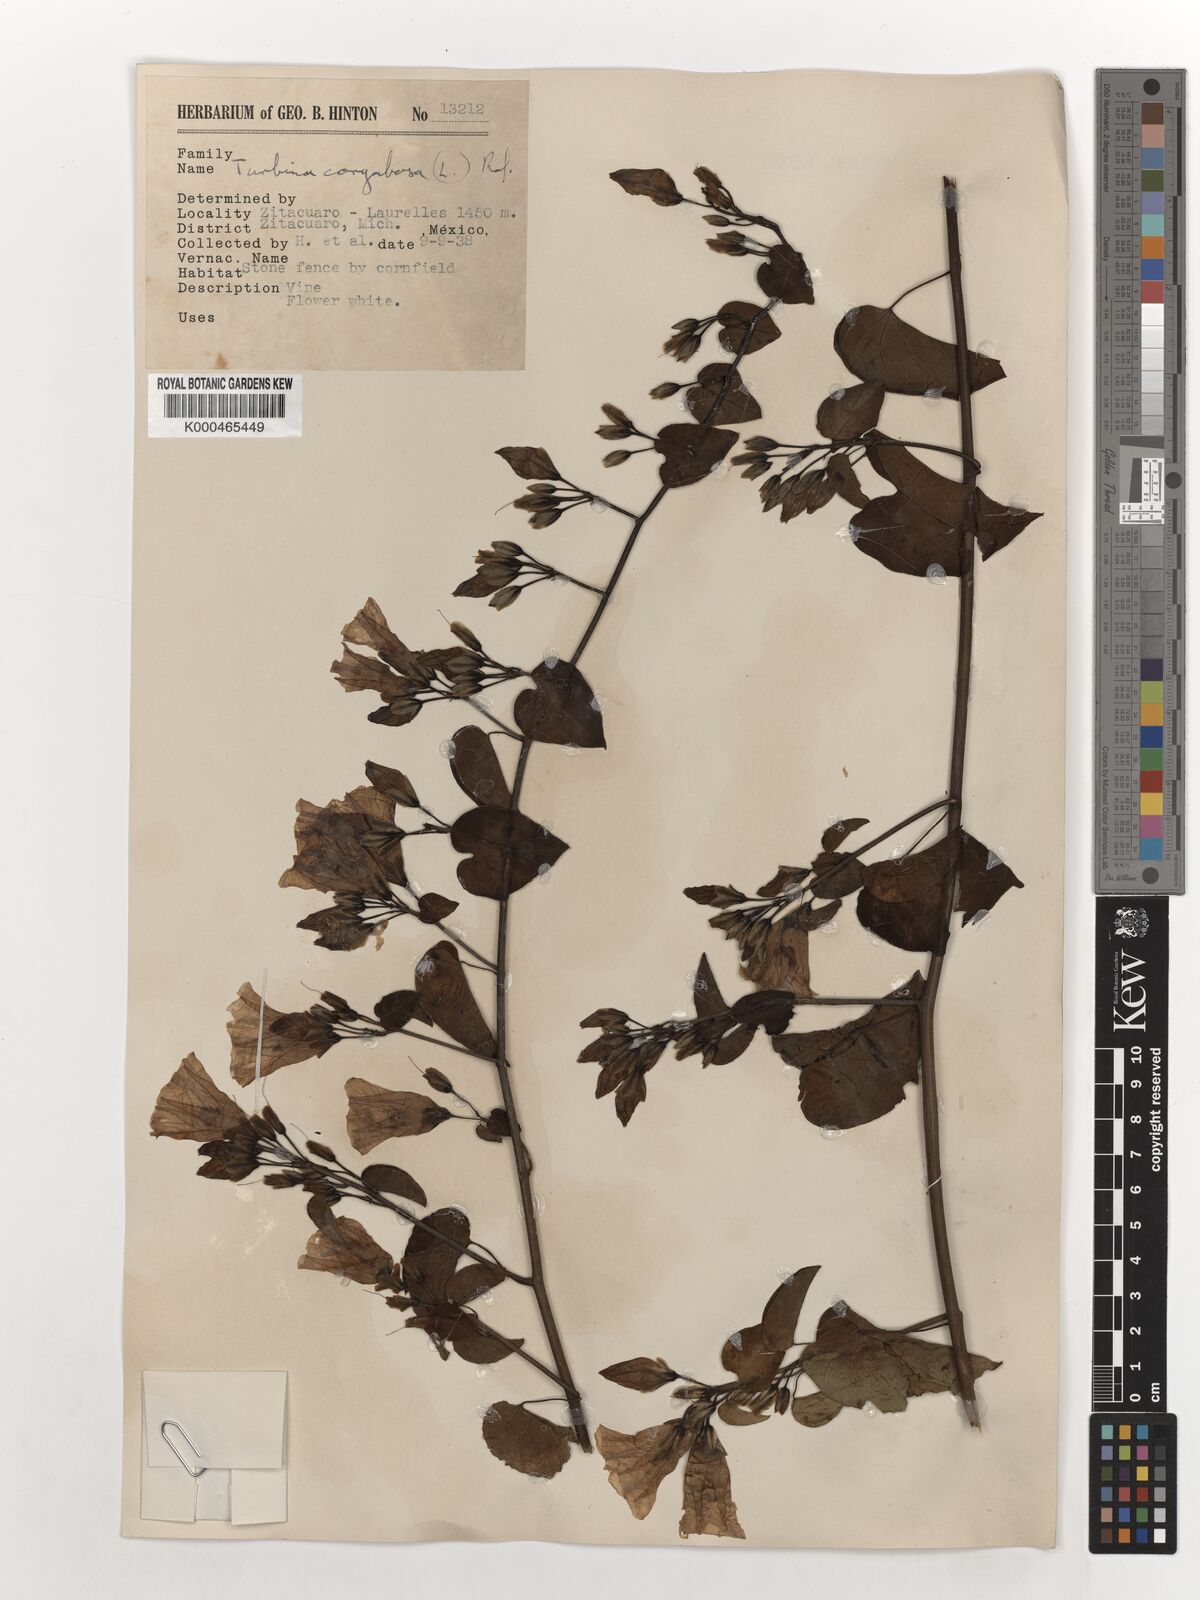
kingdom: Plantae
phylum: Tracheophyta
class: Magnoliopsida
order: Solanales
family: Convolvulaceae
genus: Ipomoea
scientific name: Ipomoea corymbosa
